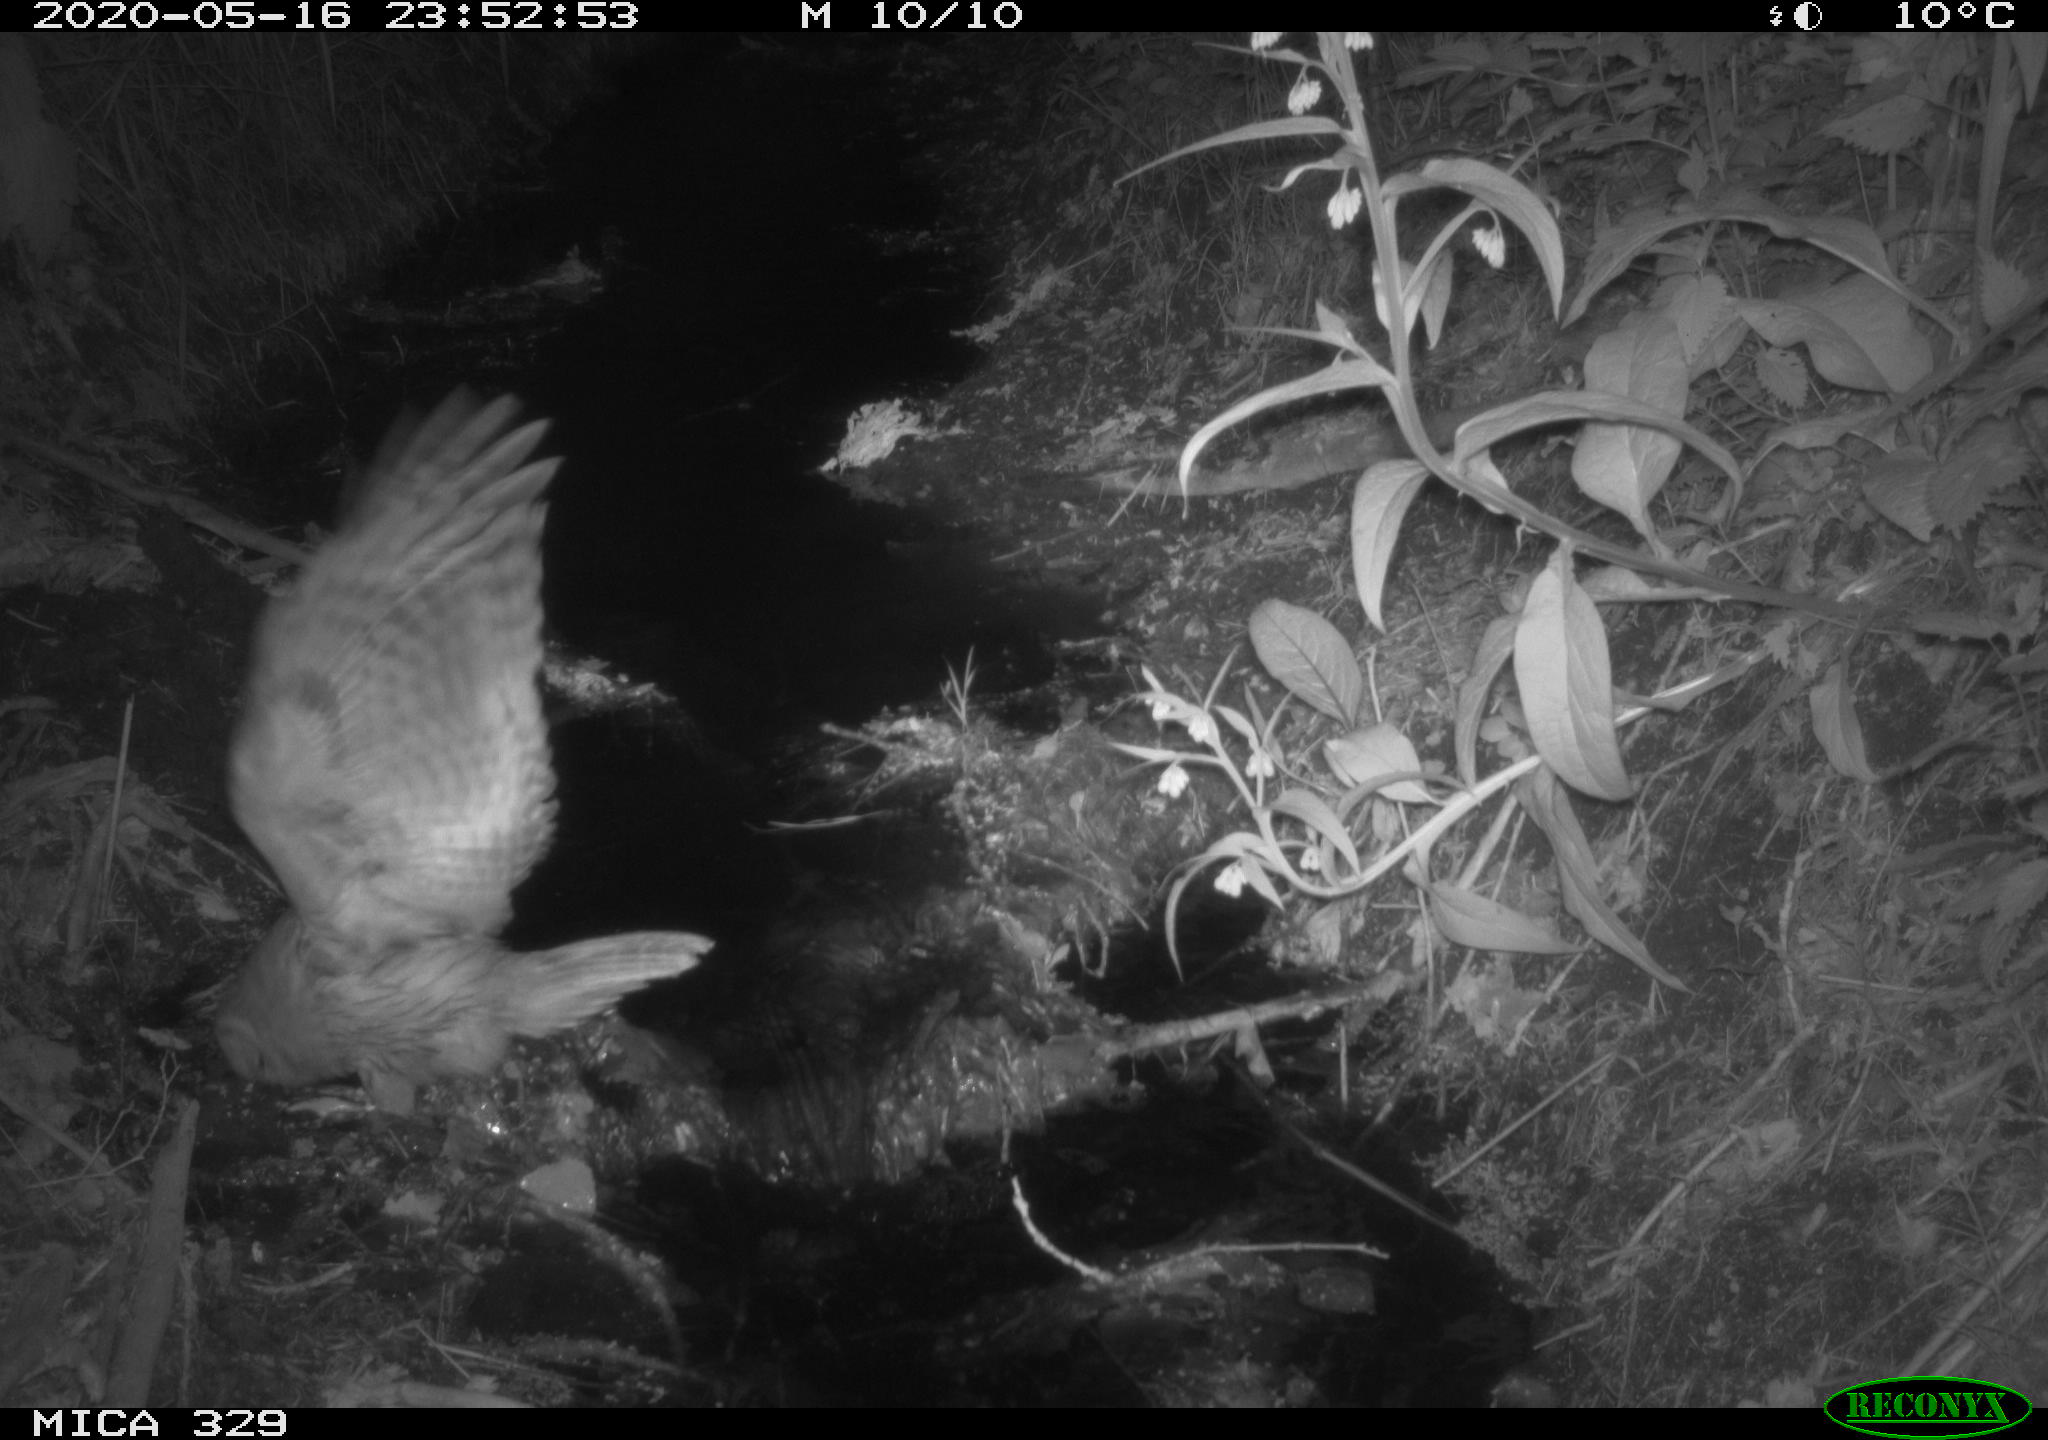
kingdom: Animalia
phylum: Chordata
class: Aves
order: Strigiformes
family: Strigidae
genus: Strix
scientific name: Strix aluco
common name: Tawny owl
